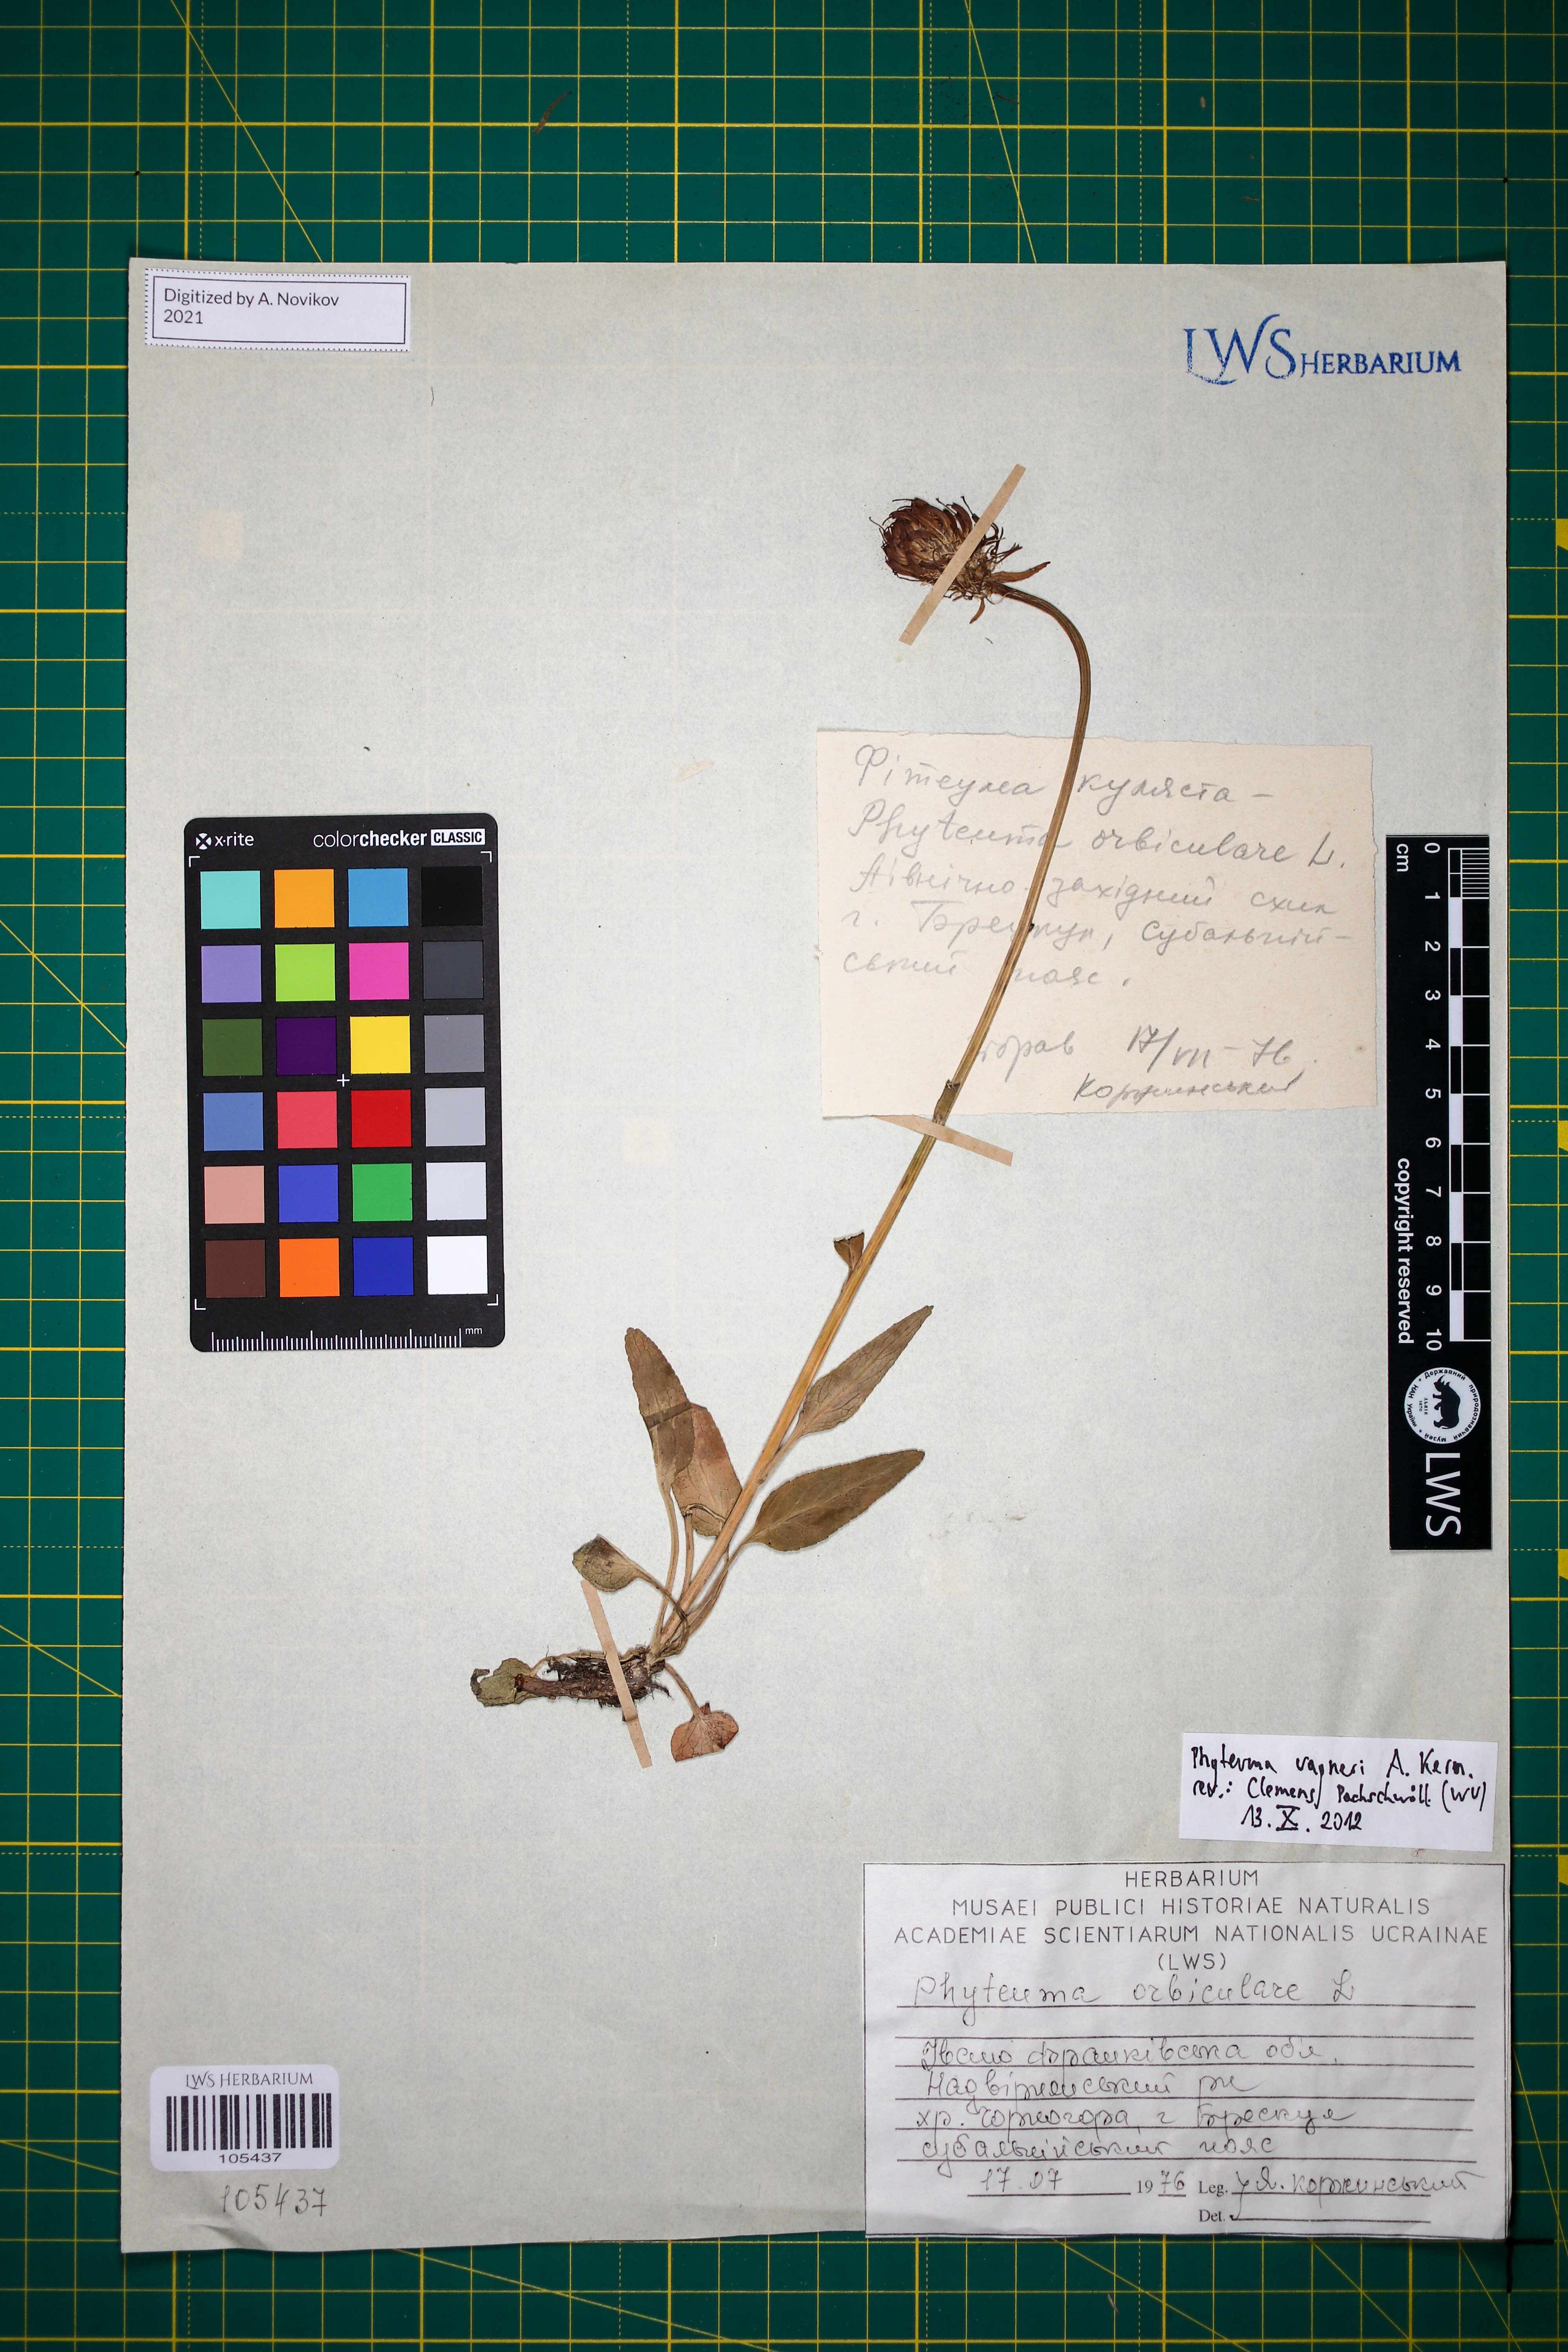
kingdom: Plantae
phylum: Tracheophyta
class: Magnoliopsida
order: Asterales
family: Campanulaceae
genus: Phyteuma
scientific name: Phyteuma vagneri
